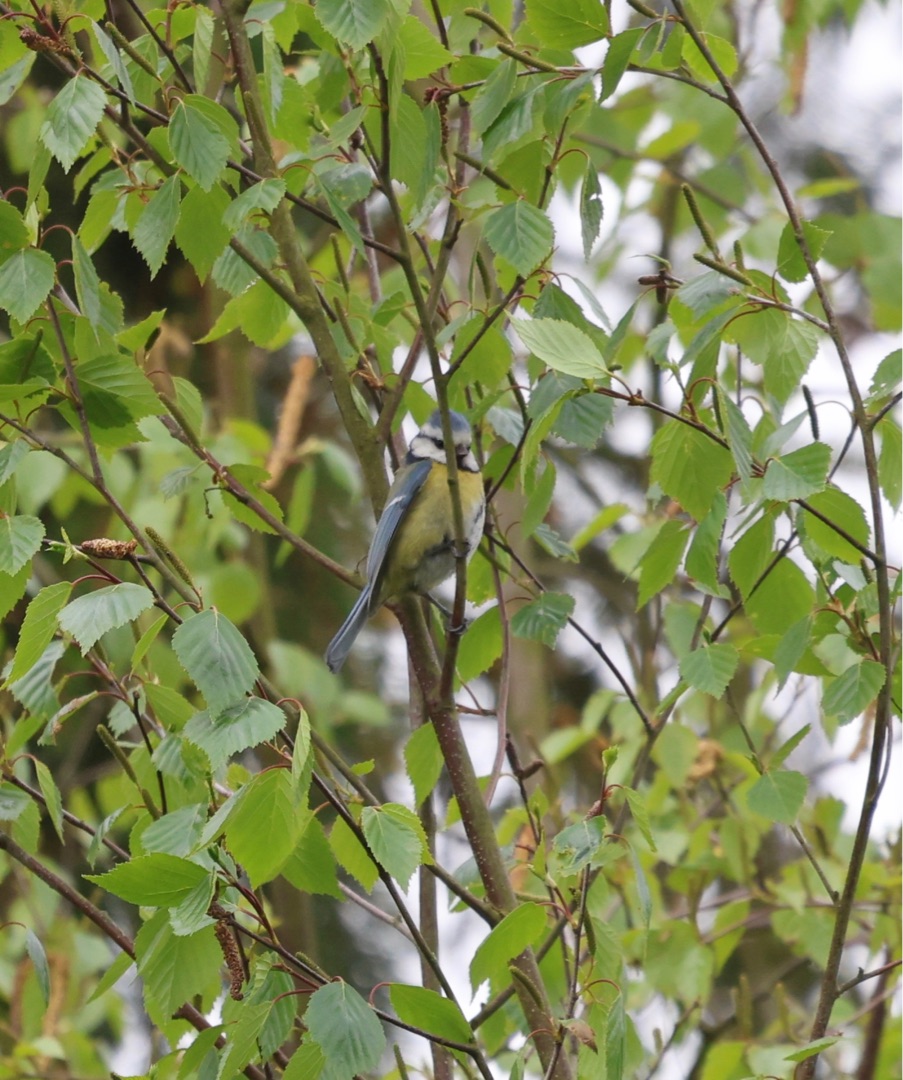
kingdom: Animalia
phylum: Chordata
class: Aves
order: Passeriformes
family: Paridae
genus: Cyanistes
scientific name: Cyanistes caeruleus
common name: Blåmejse
